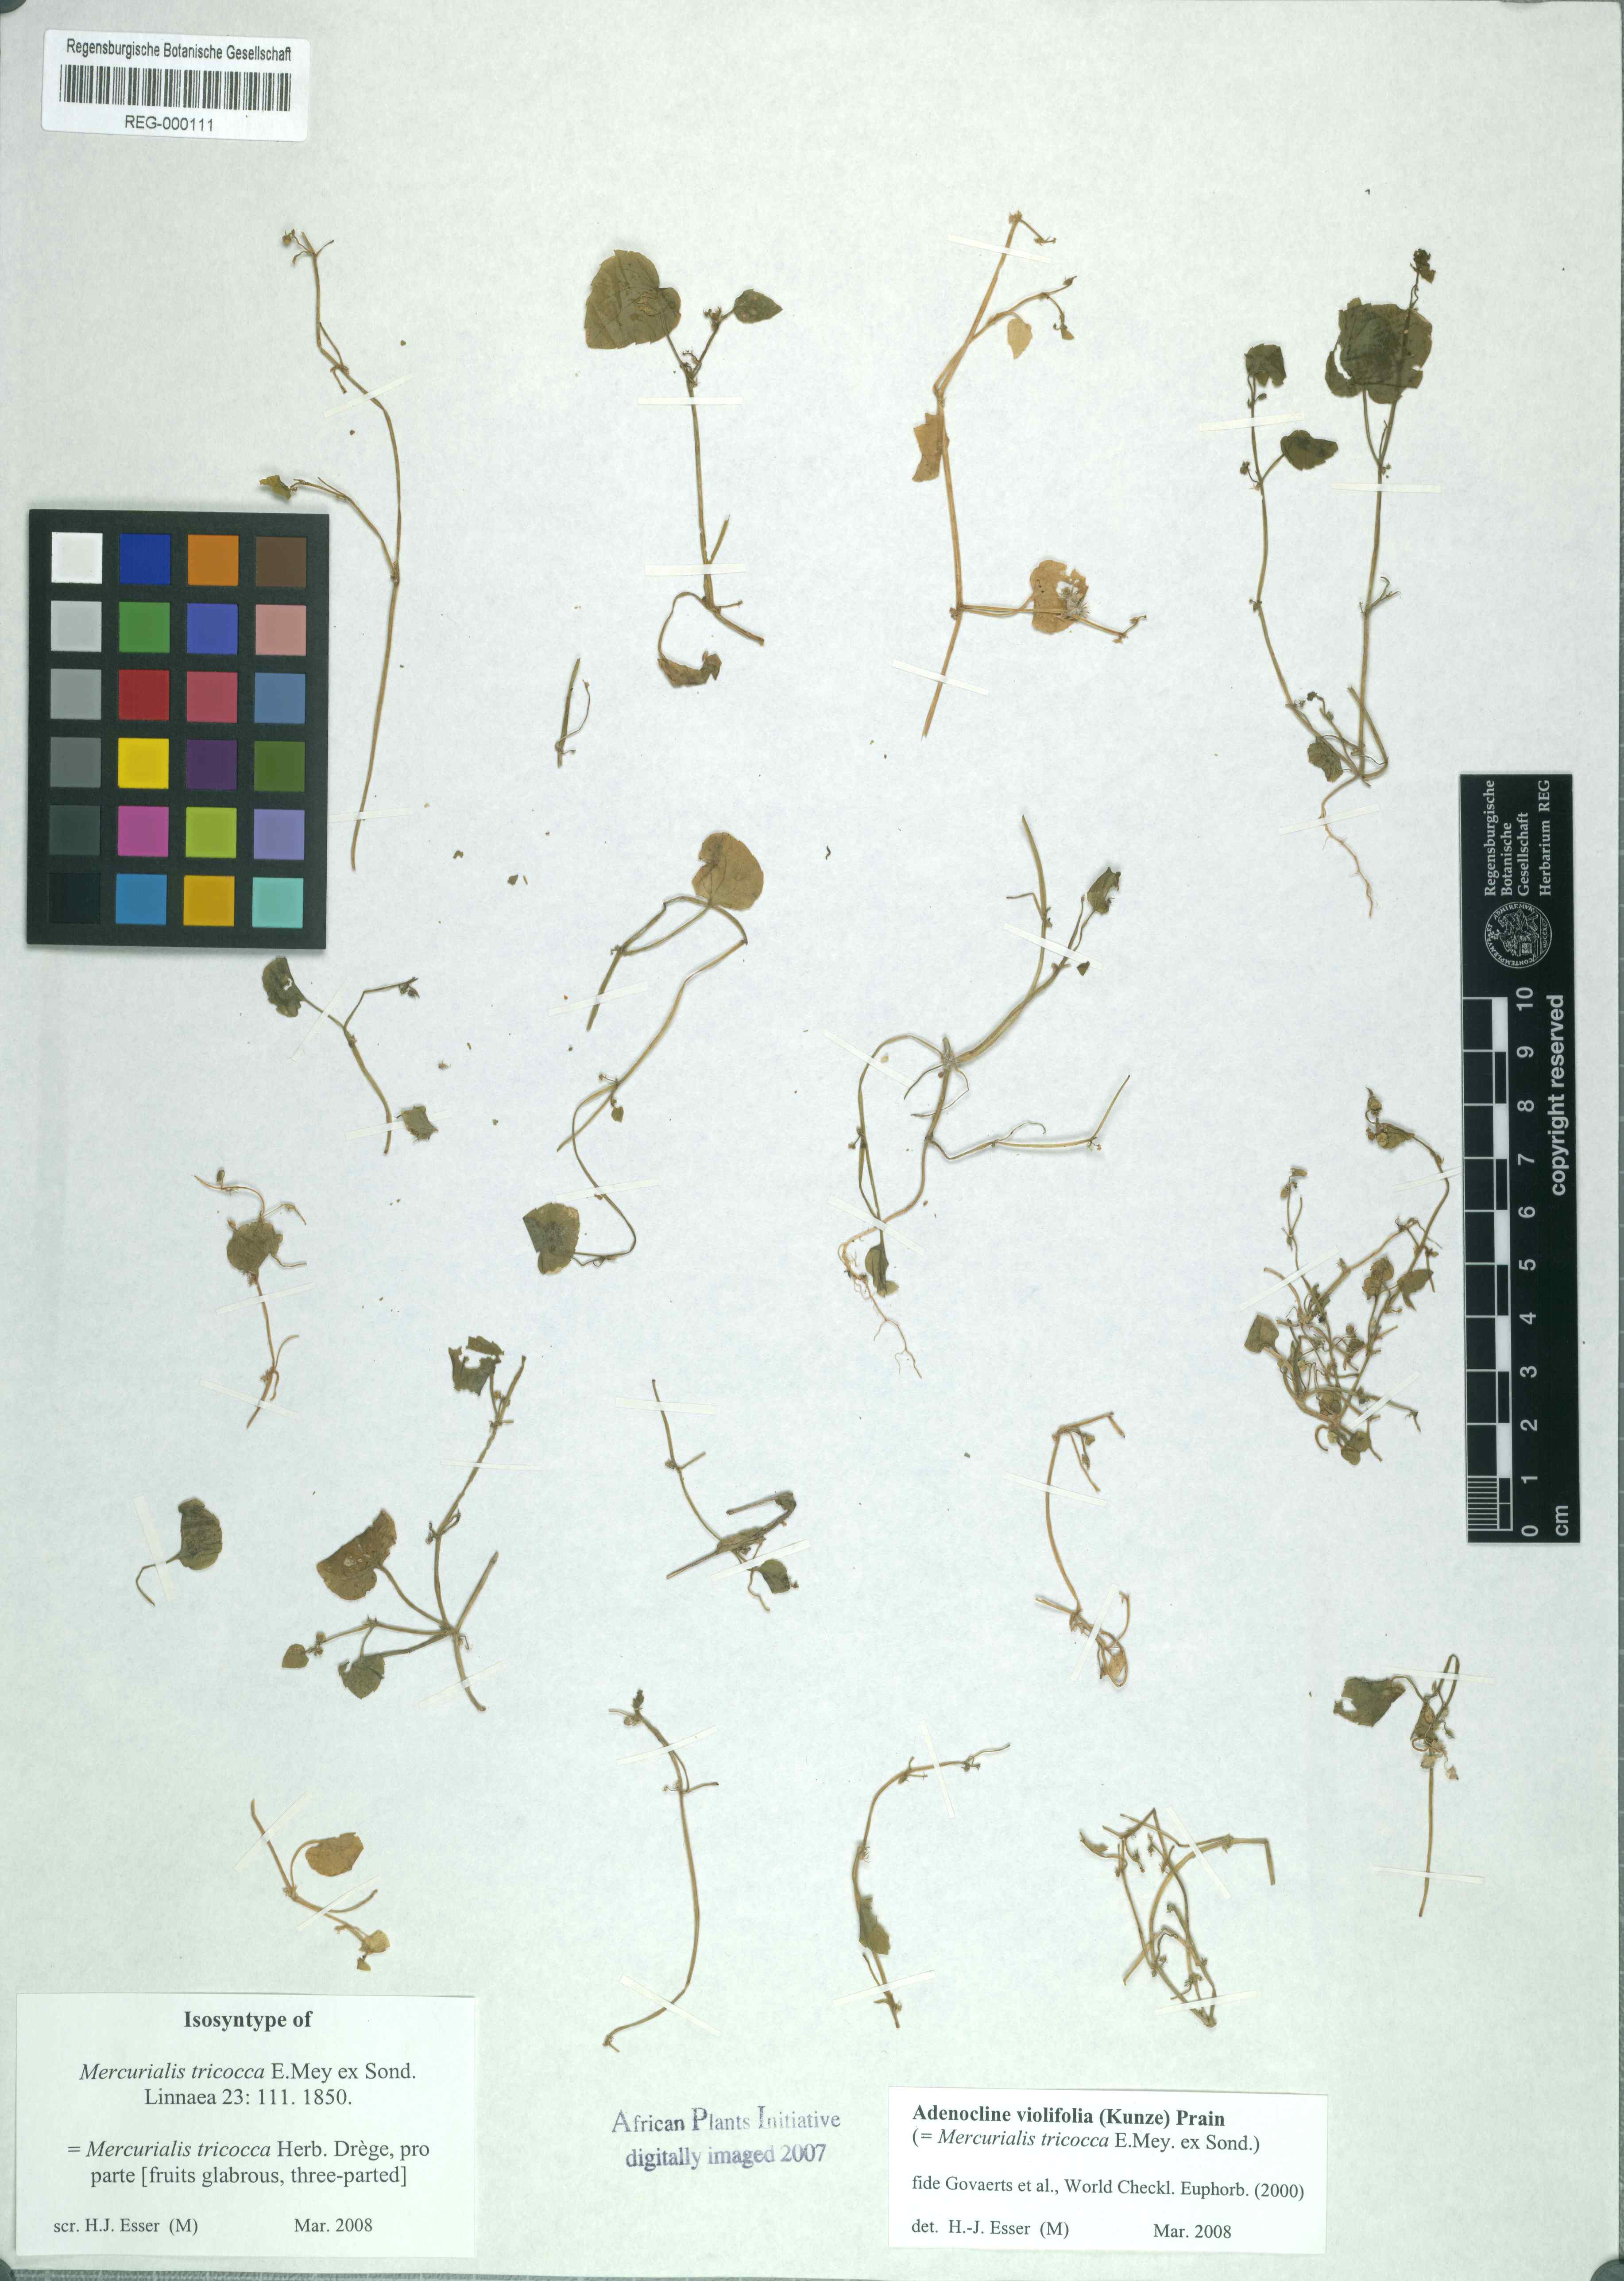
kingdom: Plantae
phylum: Tracheophyta
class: Magnoliopsida
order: Malpighiales
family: Euphorbiaceae
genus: Adenocline
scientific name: Adenocline violifolia
